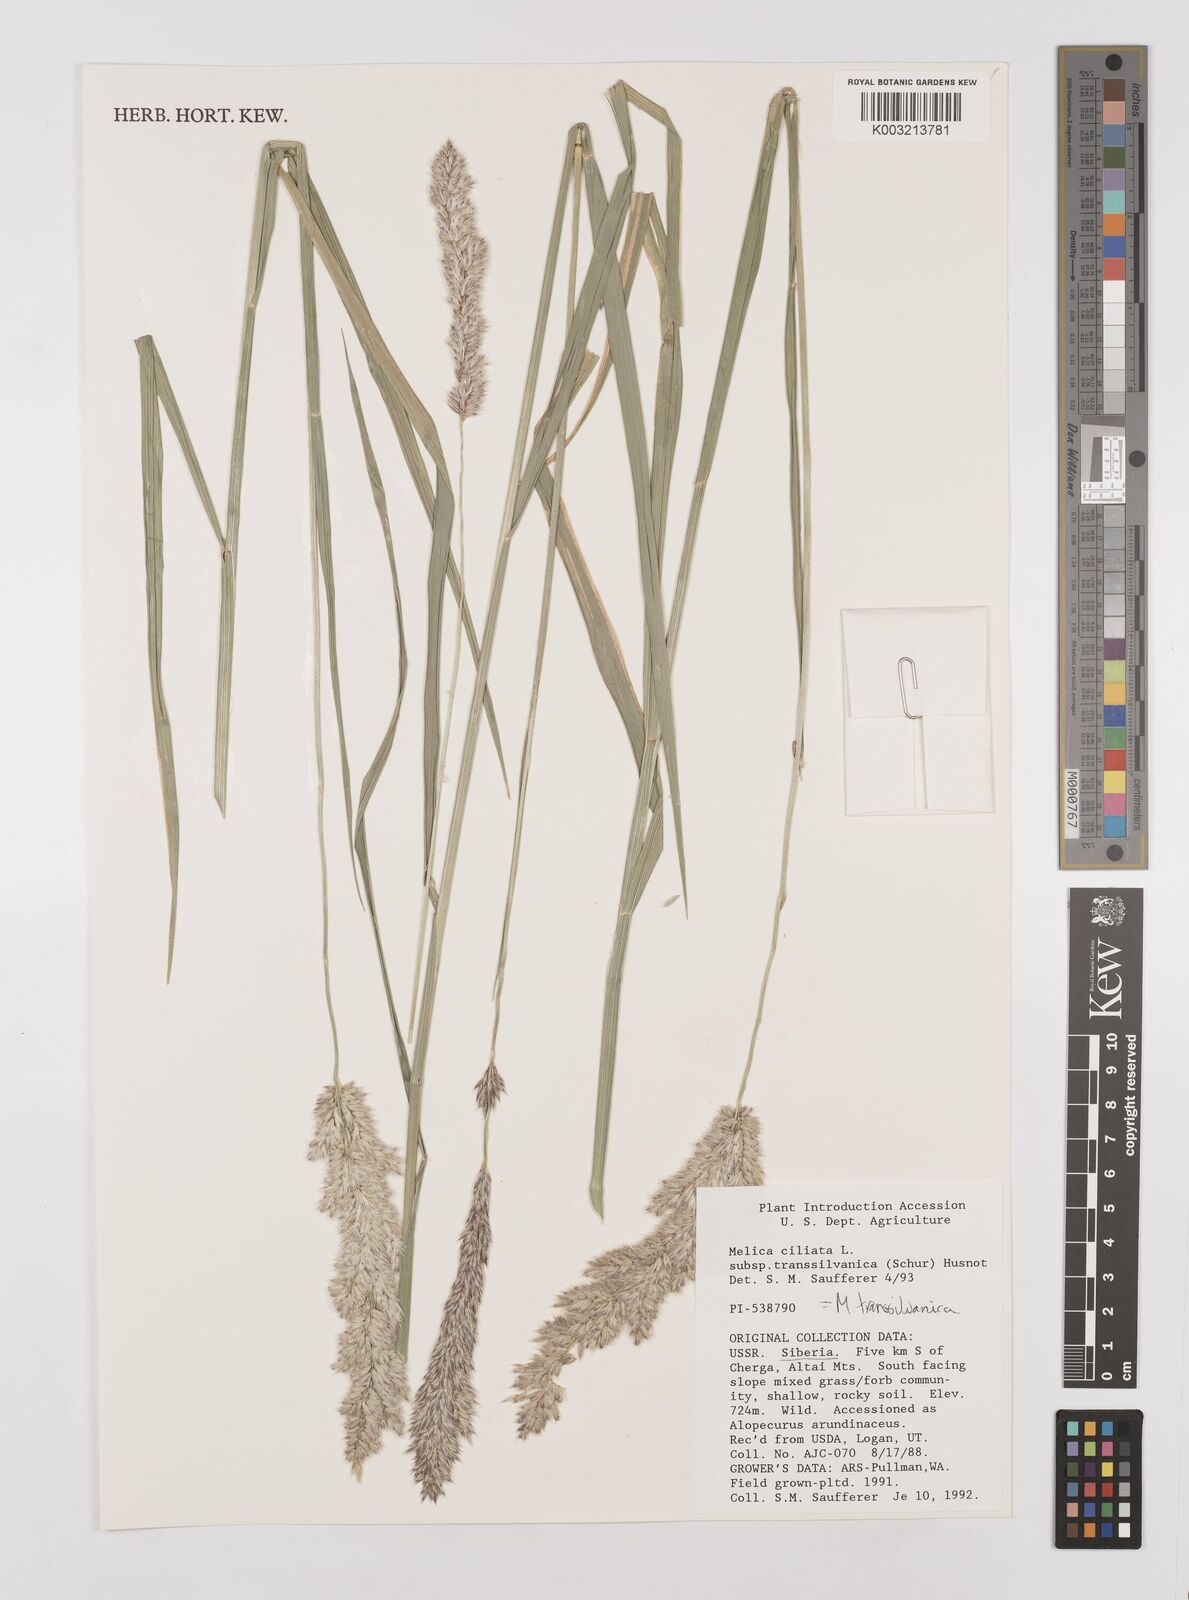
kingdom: Plantae
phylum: Tracheophyta
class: Liliopsida
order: Poales
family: Poaceae
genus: Melica
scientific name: Melica transsilvanica
